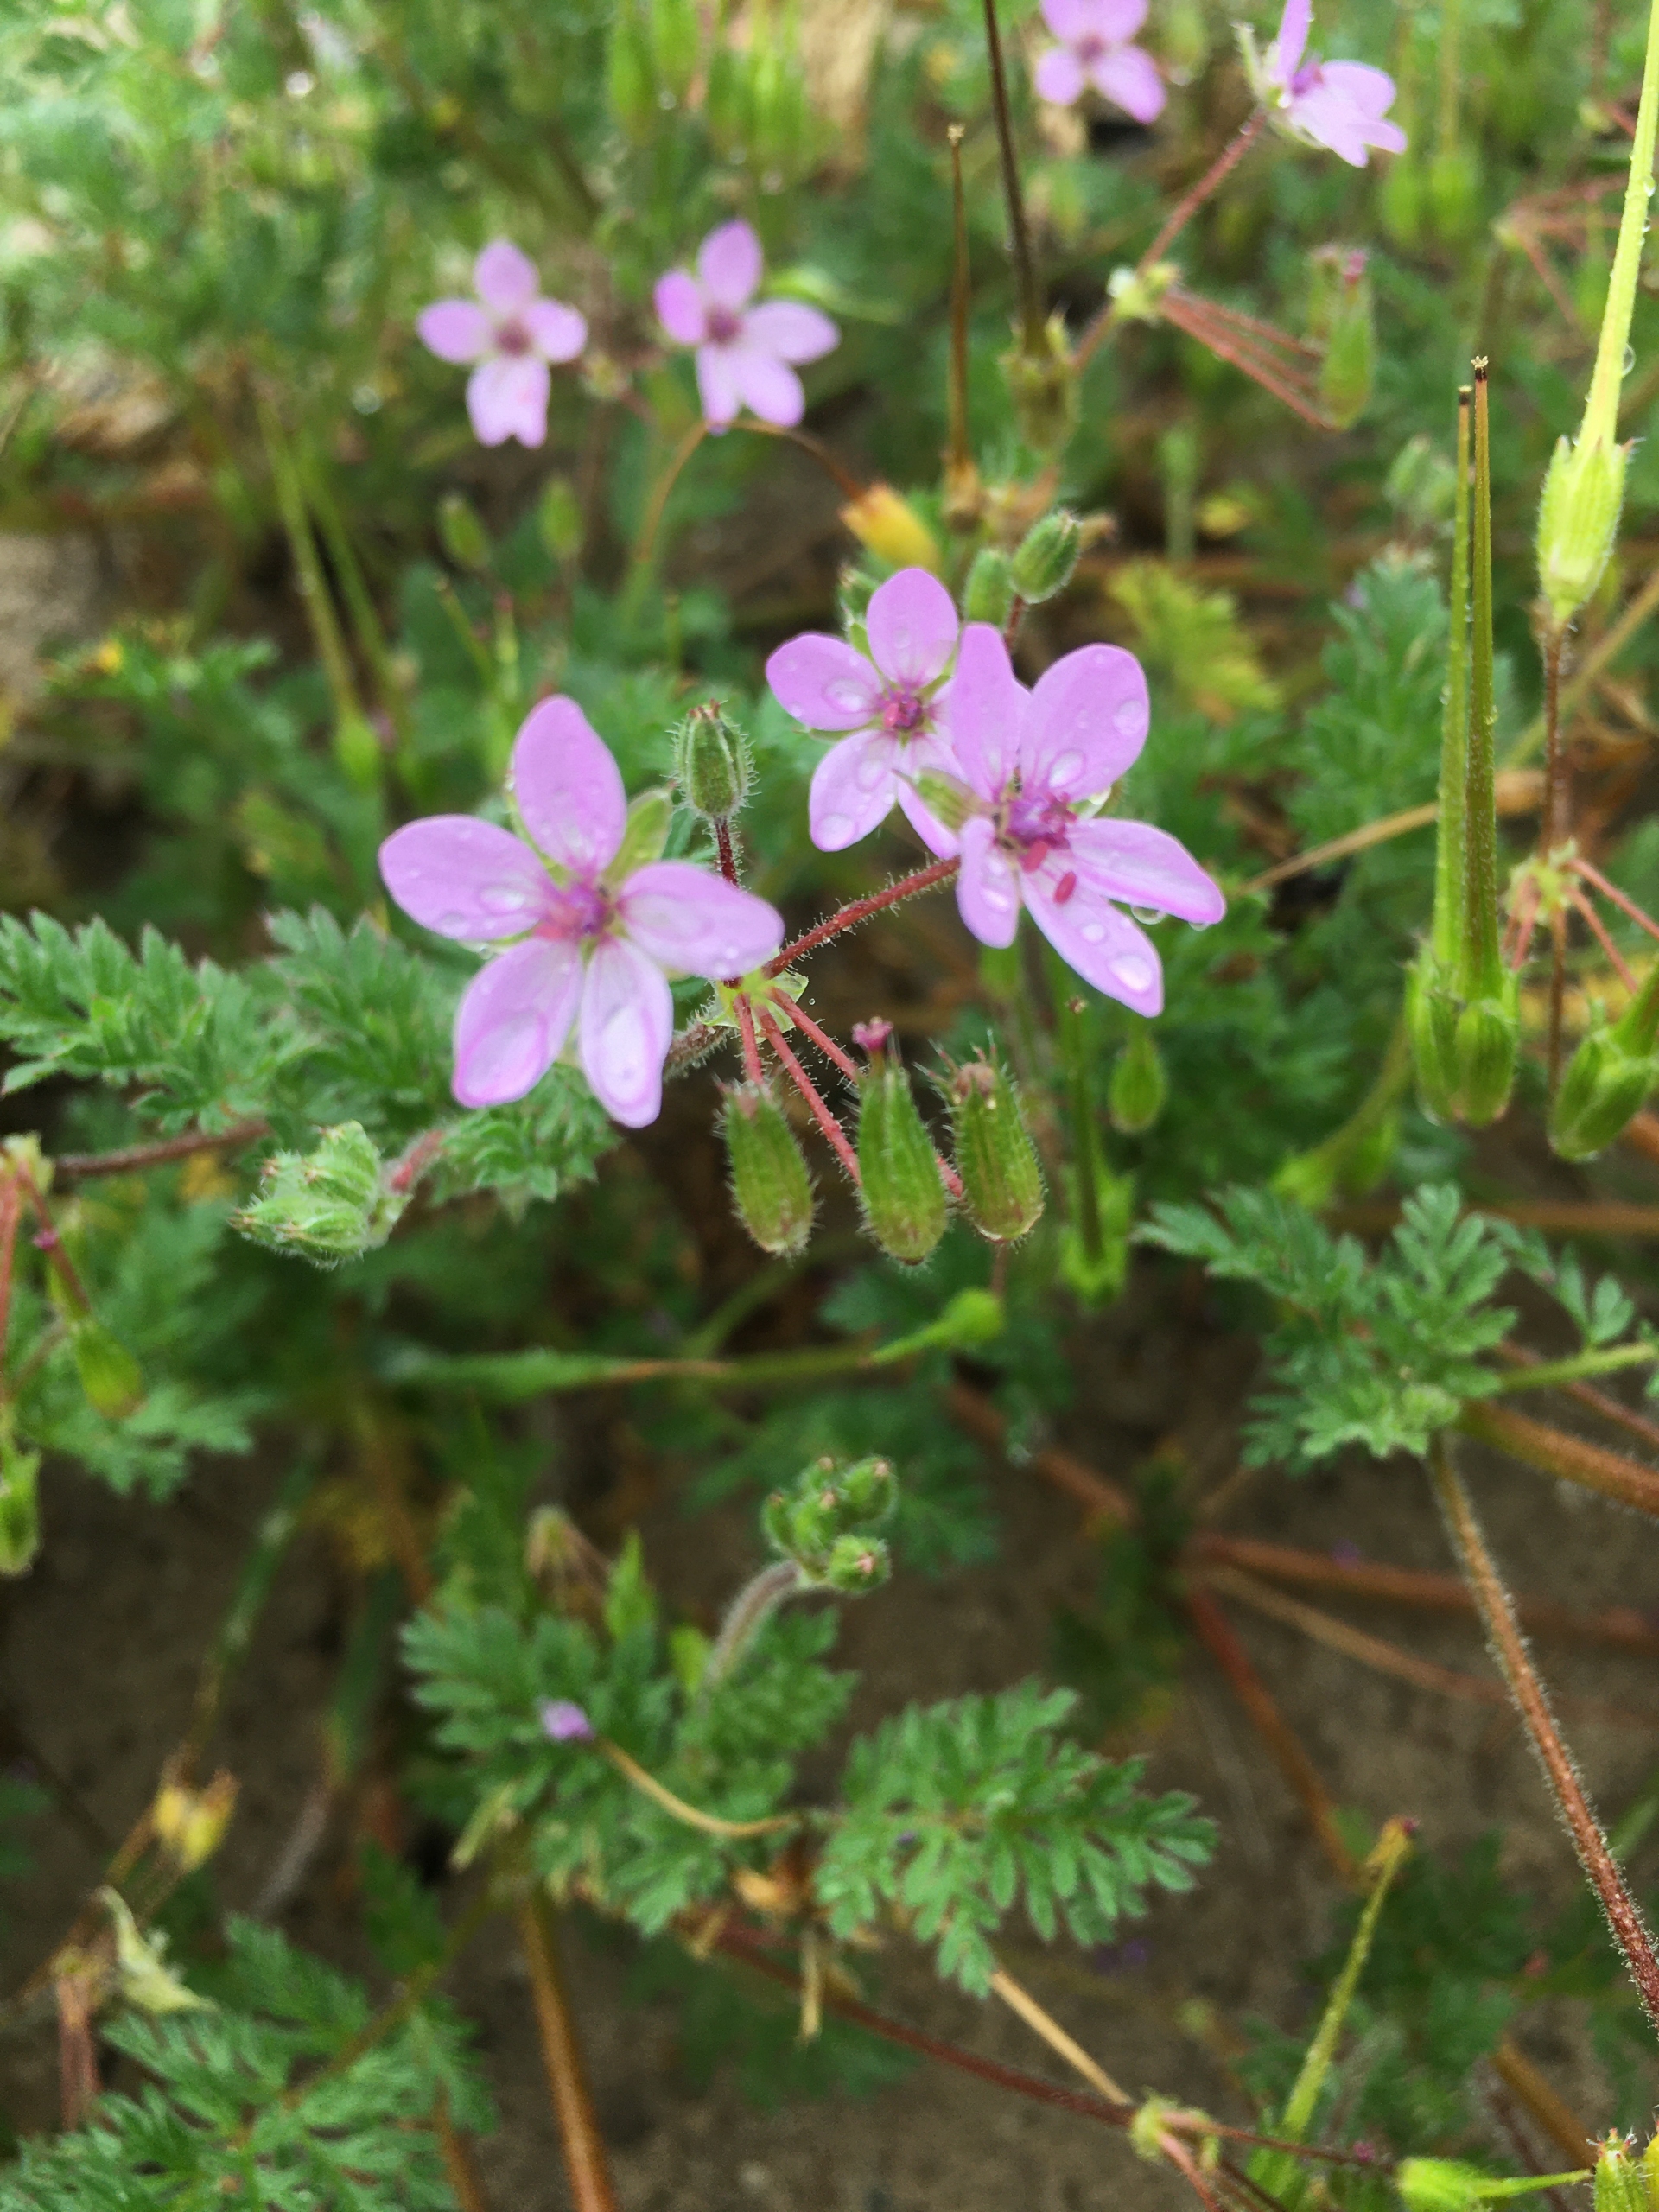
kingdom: Plantae
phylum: Tracheophyta
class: Magnoliopsida
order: Geraniales
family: Geraniaceae
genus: Erodium
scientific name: Erodium cicutarium
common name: Hejrenæb
